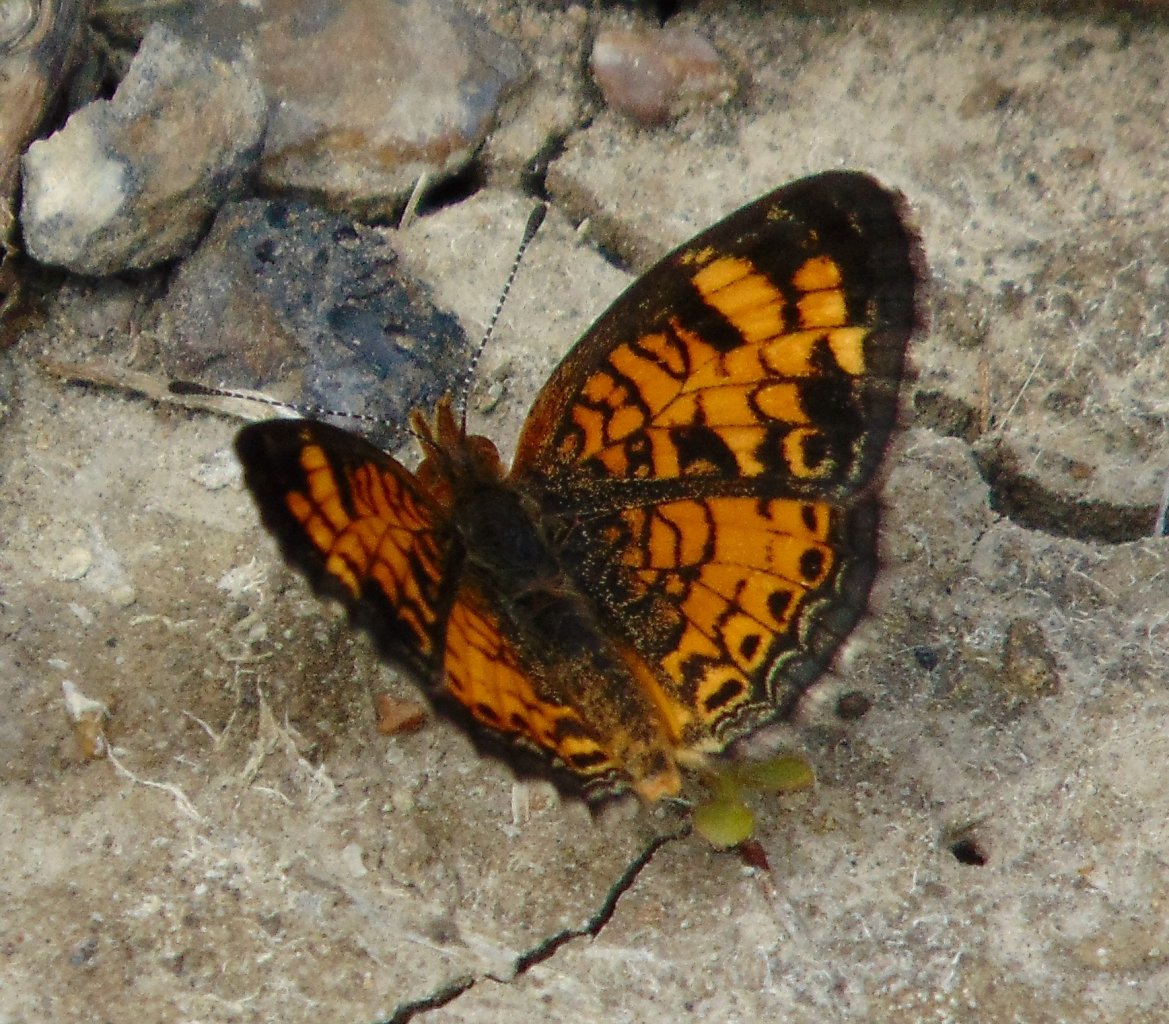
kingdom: Animalia
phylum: Arthropoda
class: Insecta
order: Lepidoptera
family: Nymphalidae
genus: Phyciodes
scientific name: Phyciodes tharos
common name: Pearl Crescent
